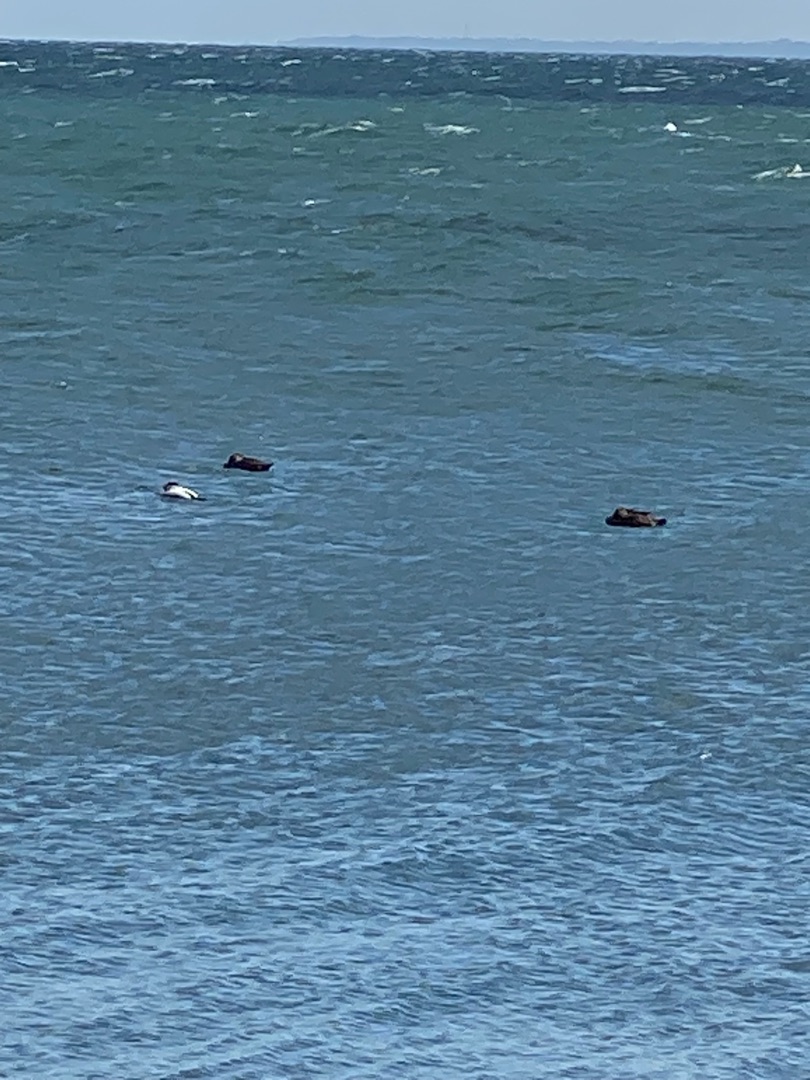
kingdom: Animalia
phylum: Chordata
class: Aves
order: Anseriformes
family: Anatidae
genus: Somateria
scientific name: Somateria mollissima
